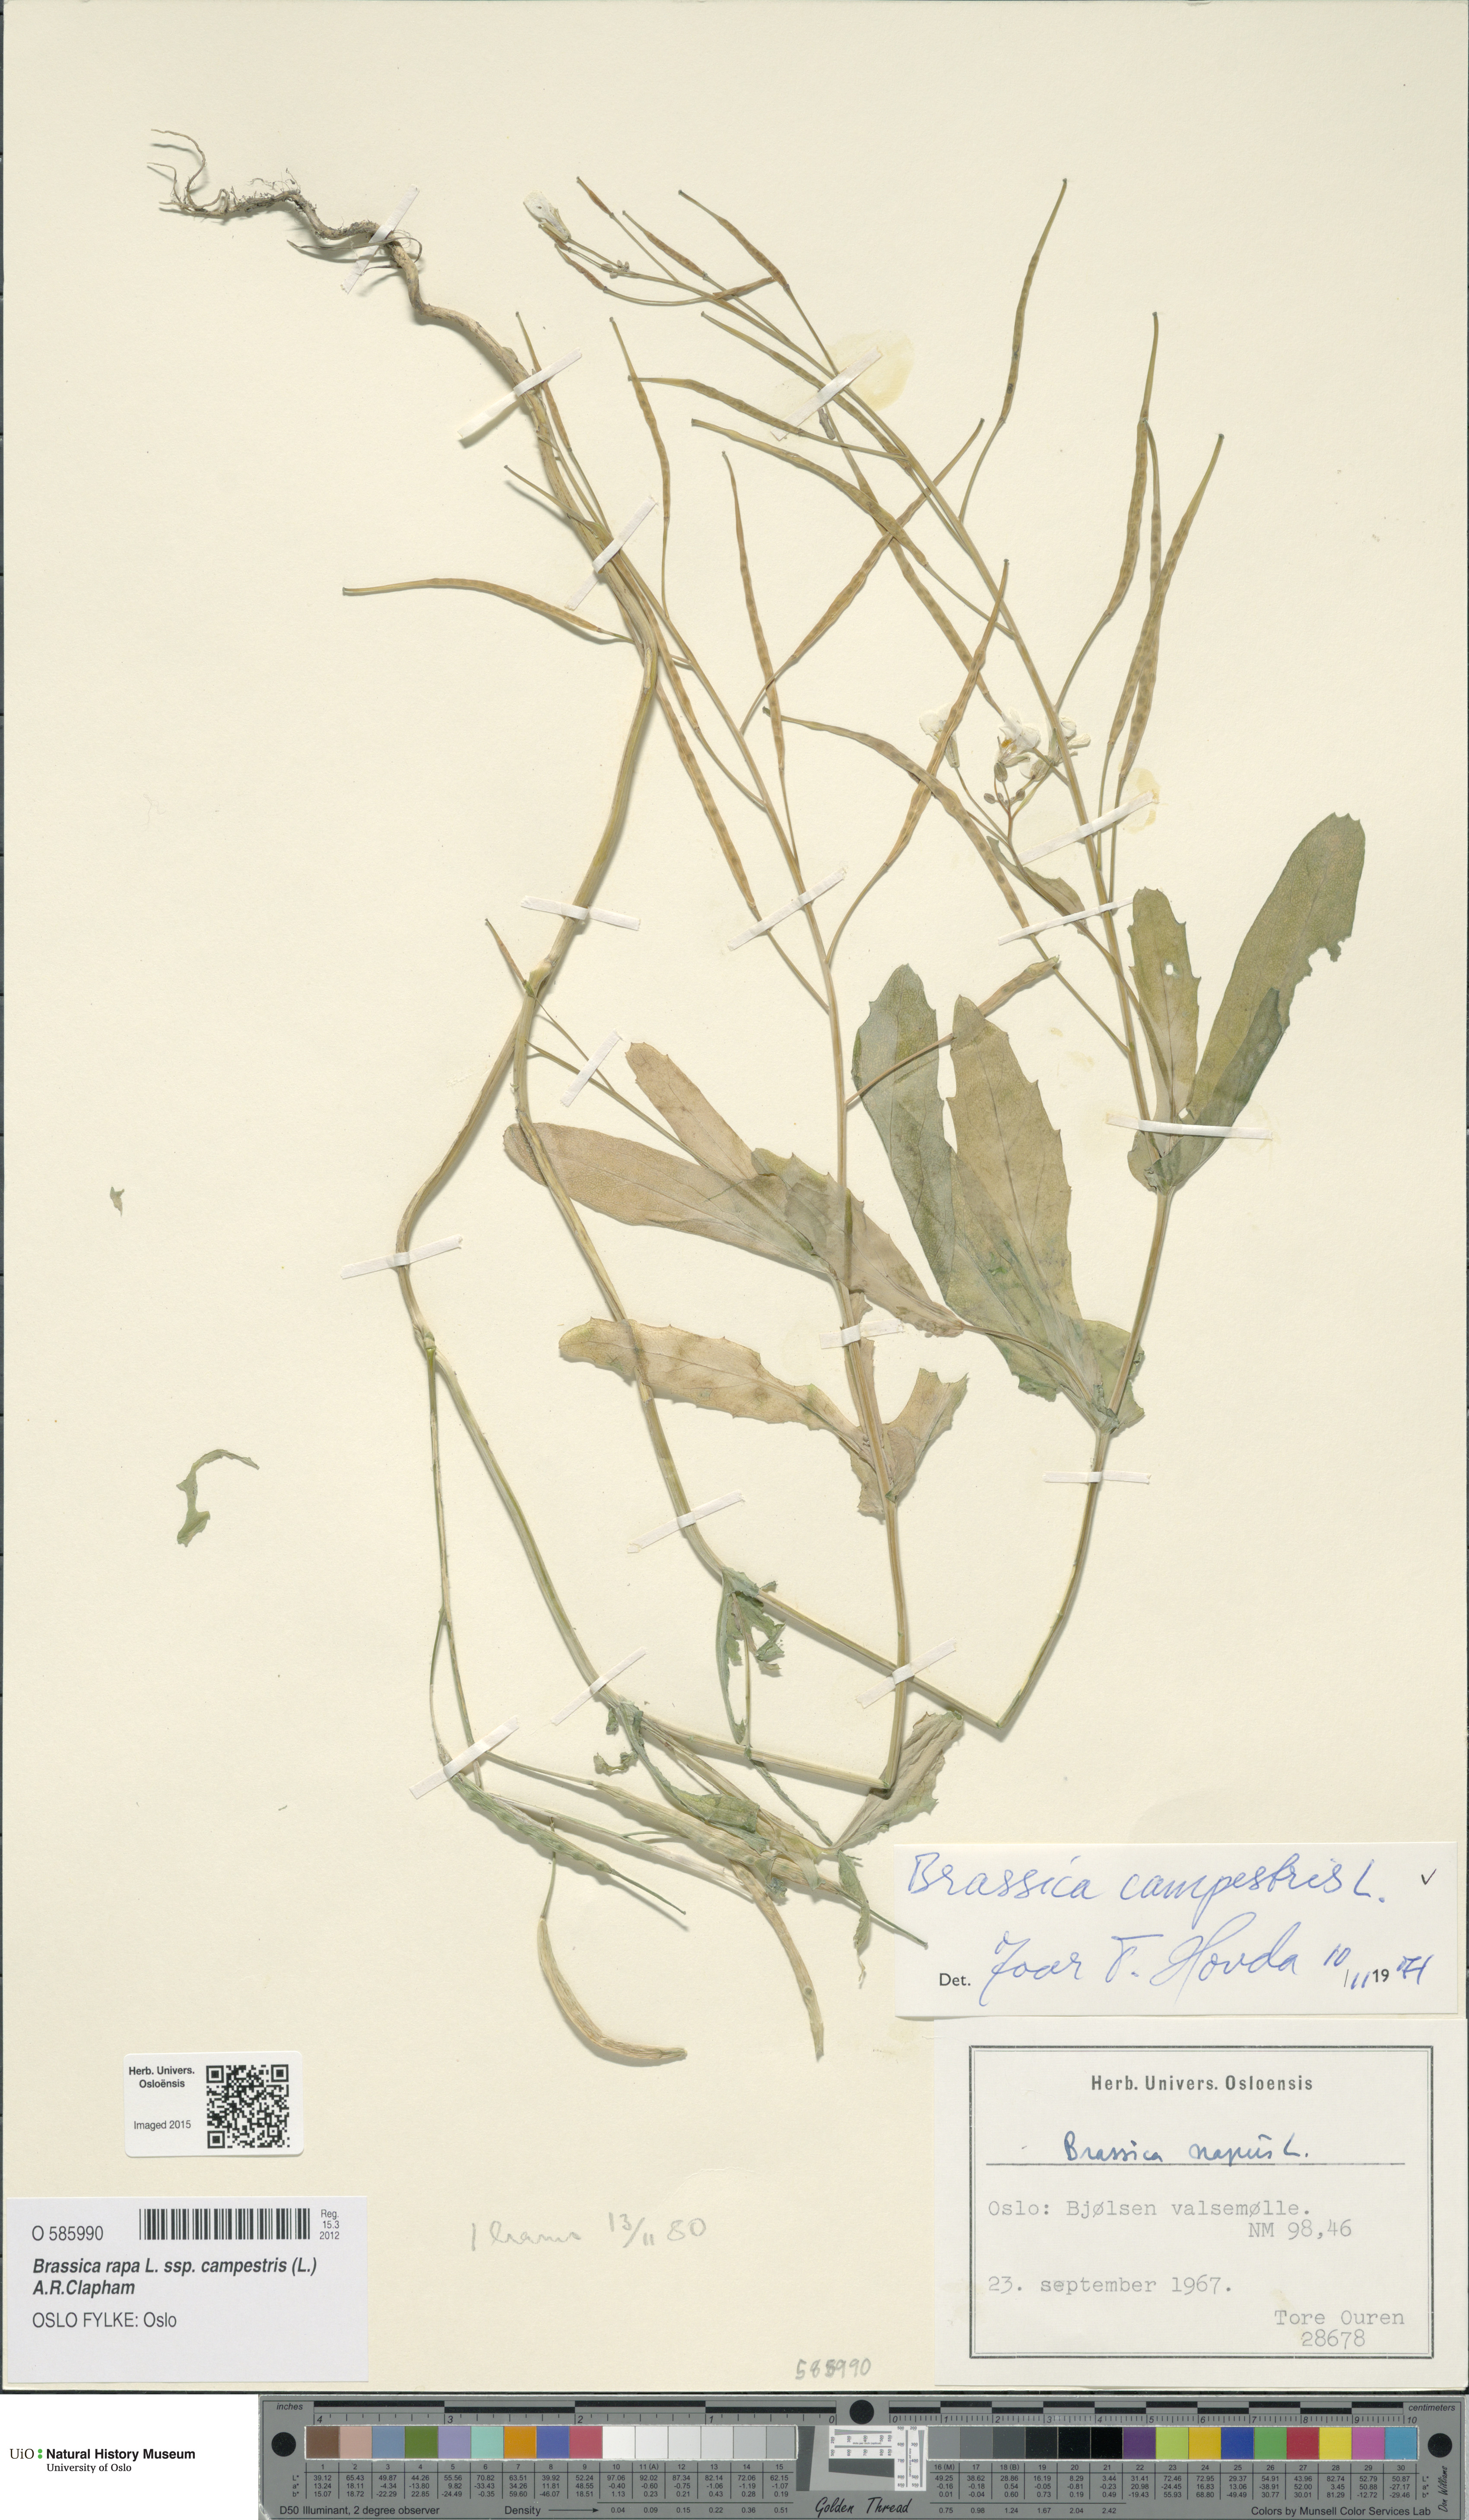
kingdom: Plantae
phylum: Tracheophyta
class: Magnoliopsida
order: Brassicales
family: Brassicaceae
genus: Brassica
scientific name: Brassica rapa
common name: Field mustard
